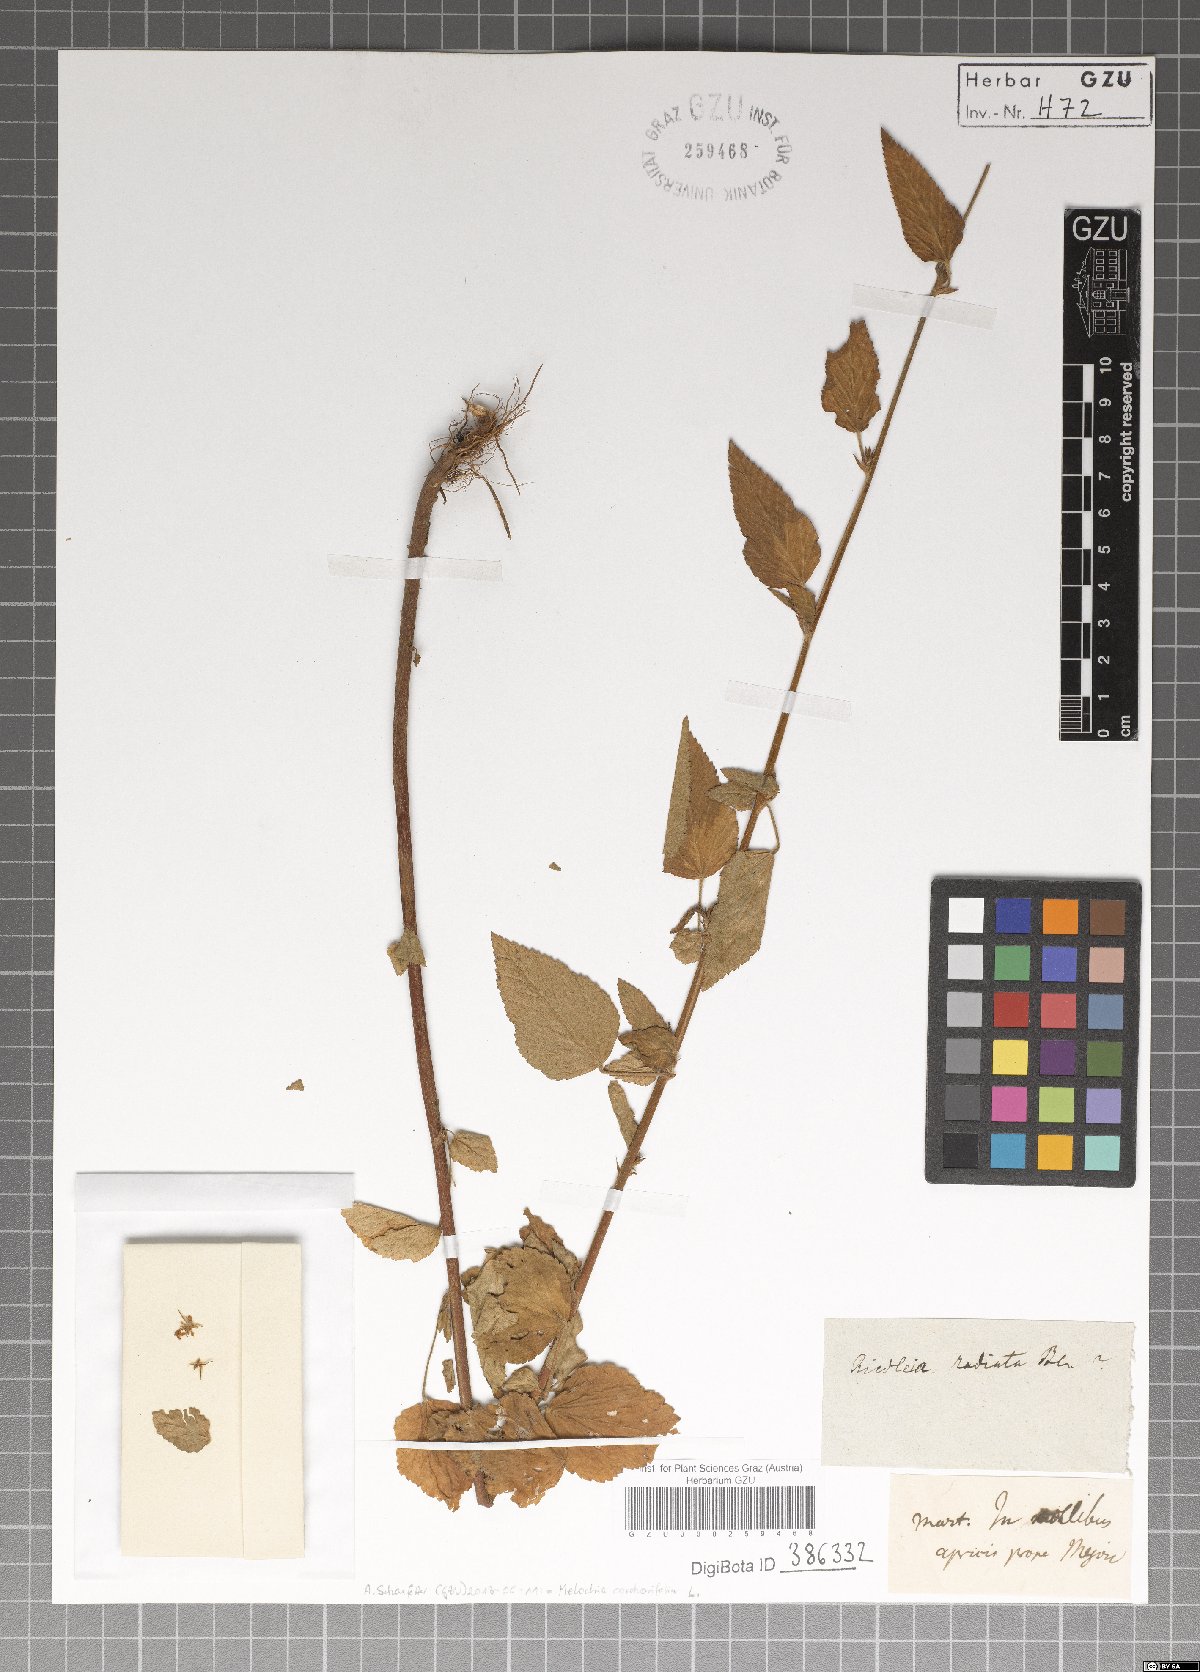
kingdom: Plantae
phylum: Tracheophyta
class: Magnoliopsida
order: Malvales
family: Malvaceae
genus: Melochia
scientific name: Melochia corchorifolia
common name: Chocolateweed
